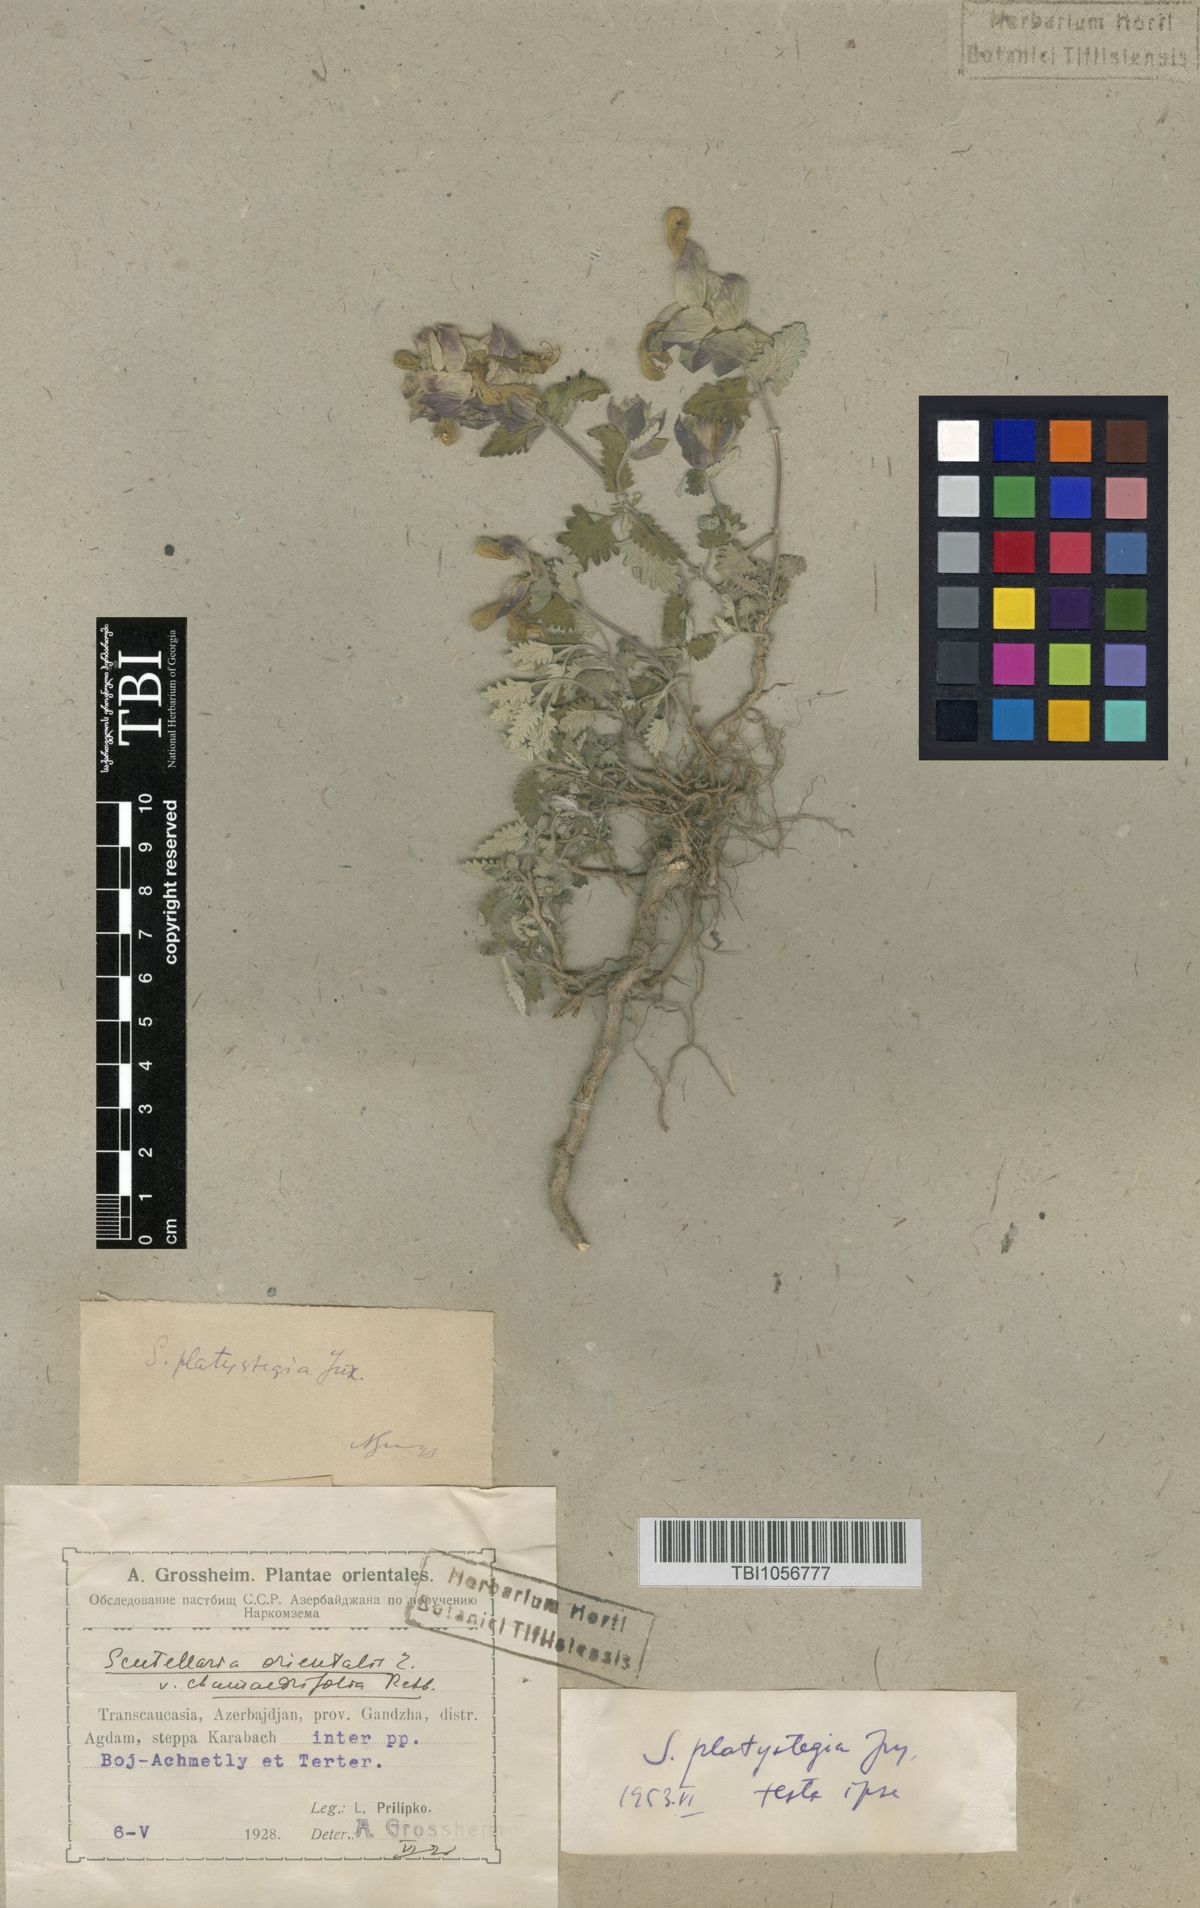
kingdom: Plantae
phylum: Tracheophyta
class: Magnoliopsida
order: Lamiales
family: Lamiaceae
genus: Scutellaria
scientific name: Scutellaria platystegia
